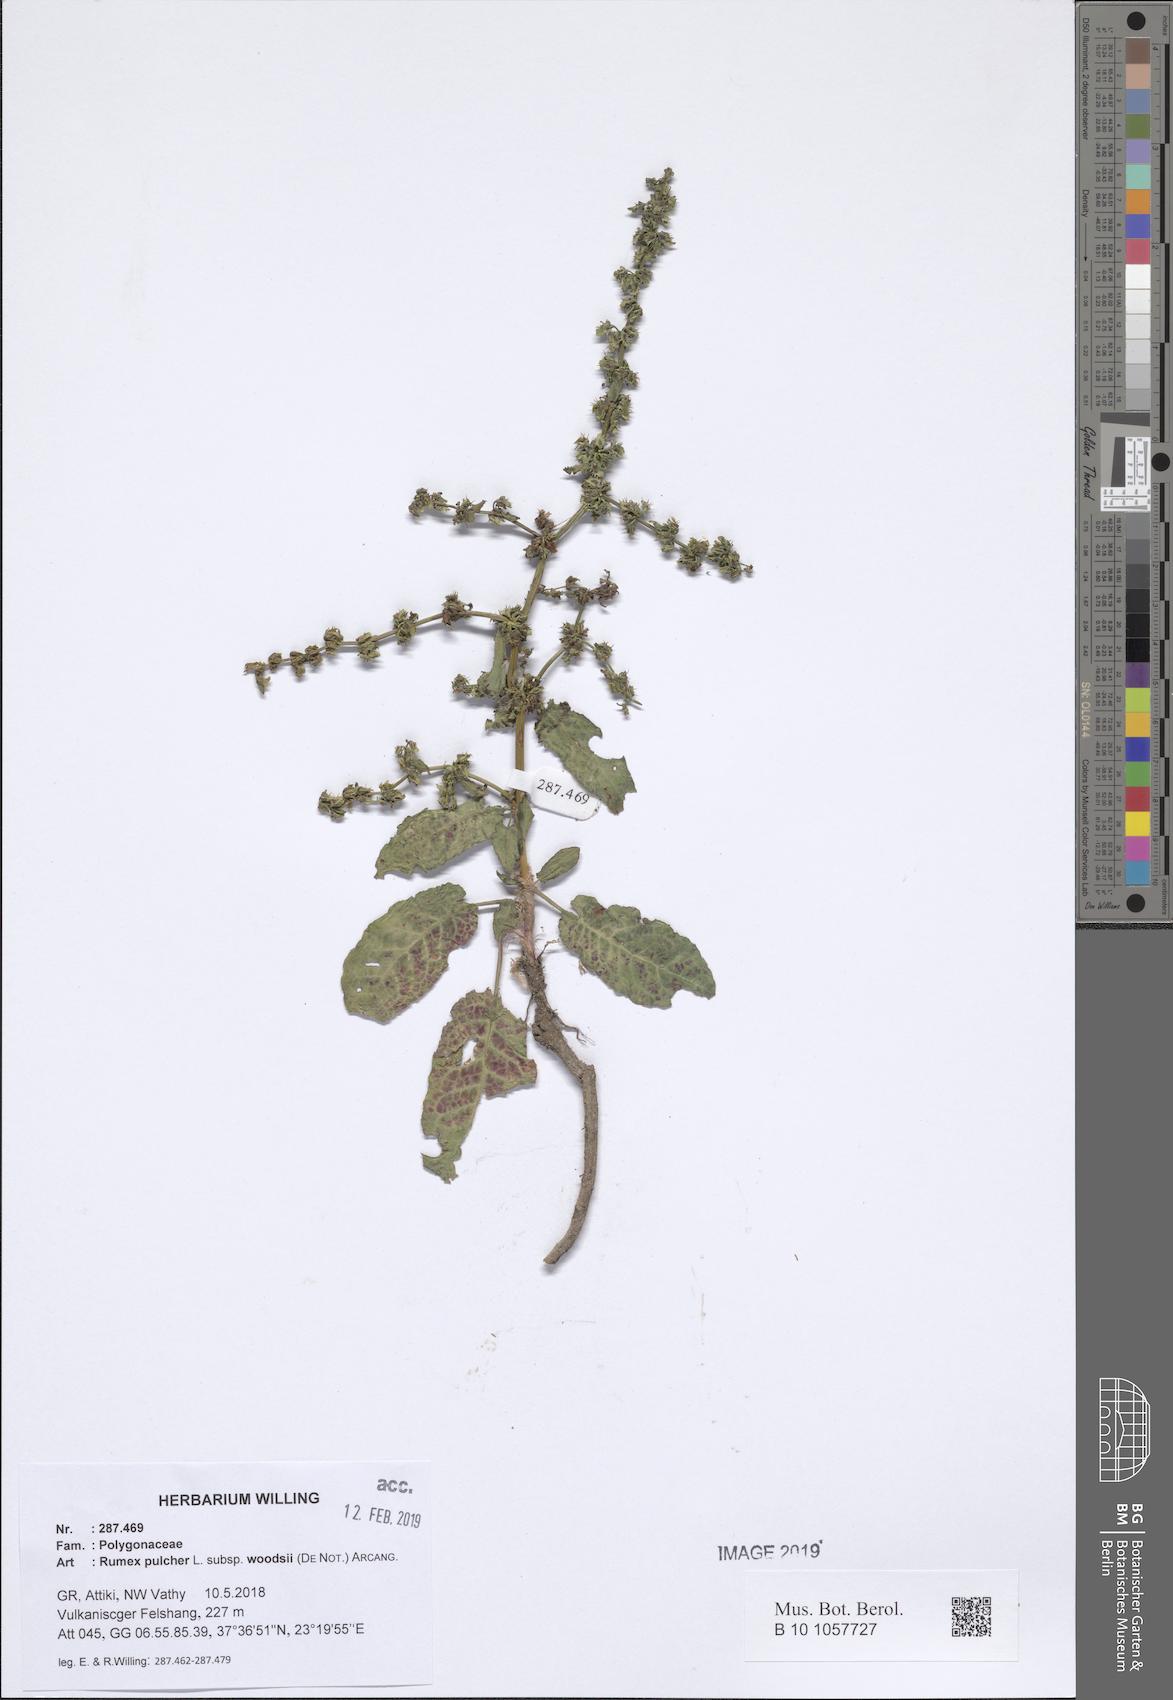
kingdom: Plantae
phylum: Tracheophyta
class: Magnoliopsida
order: Caryophyllales
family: Polygonaceae
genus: Rumex
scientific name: Rumex pulcher
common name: Fiddle dock
